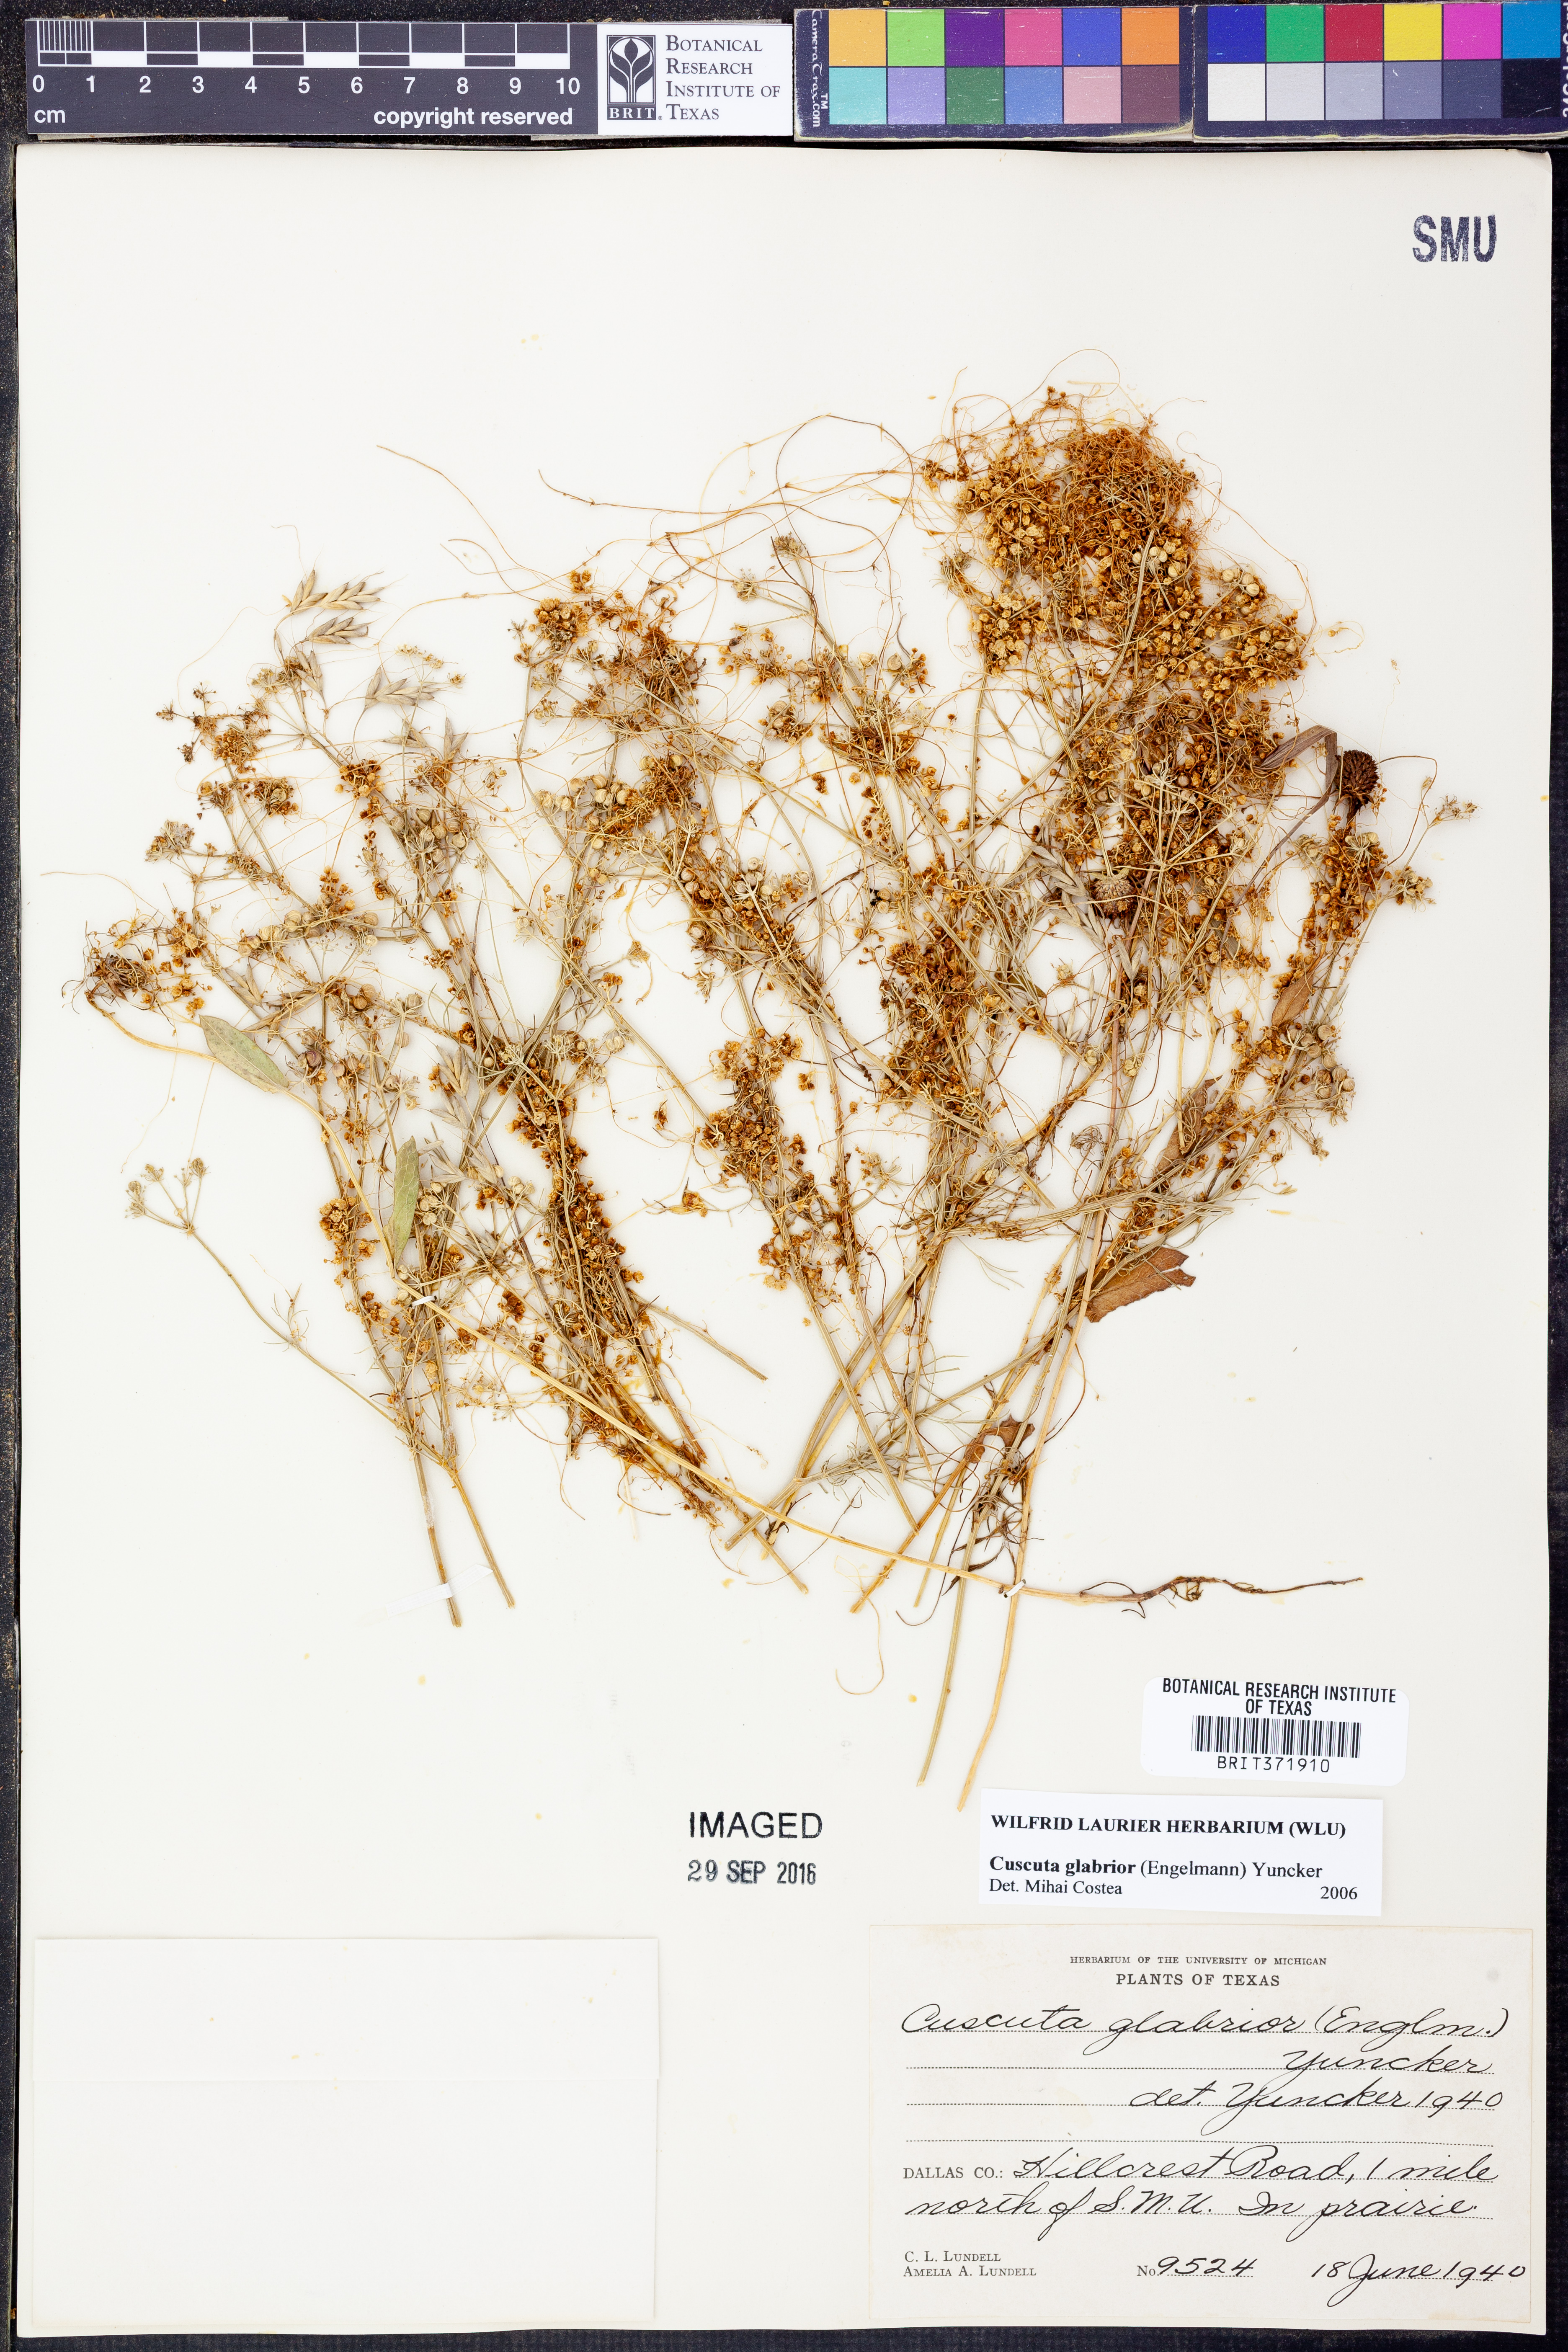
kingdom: Plantae
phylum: Tracheophyta
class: Magnoliopsida
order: Solanales
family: Convolvulaceae
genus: Cuscuta
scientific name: Cuscuta glabrior
